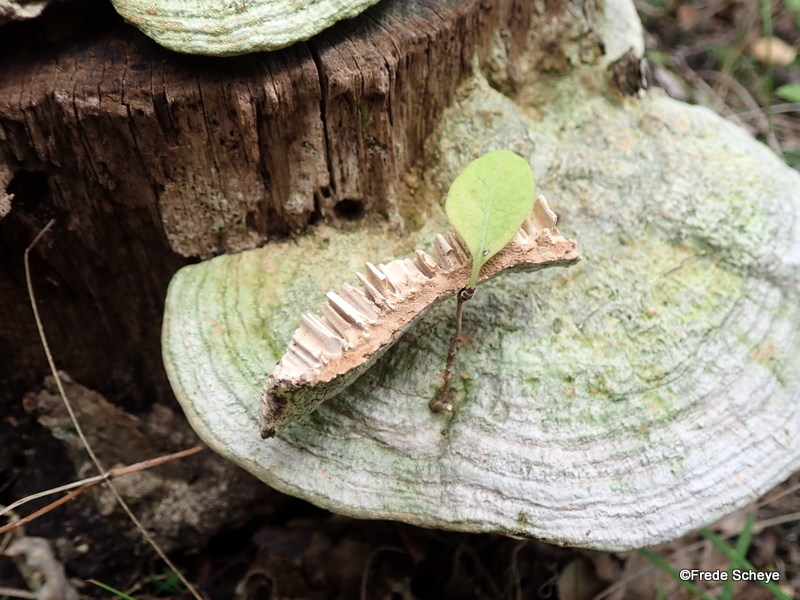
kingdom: Fungi
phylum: Basidiomycota
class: Agaricomycetes
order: Polyporales
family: Fomitopsidaceae
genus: Daedalea
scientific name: Daedalea quercina
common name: ege-labyrintsvamp
